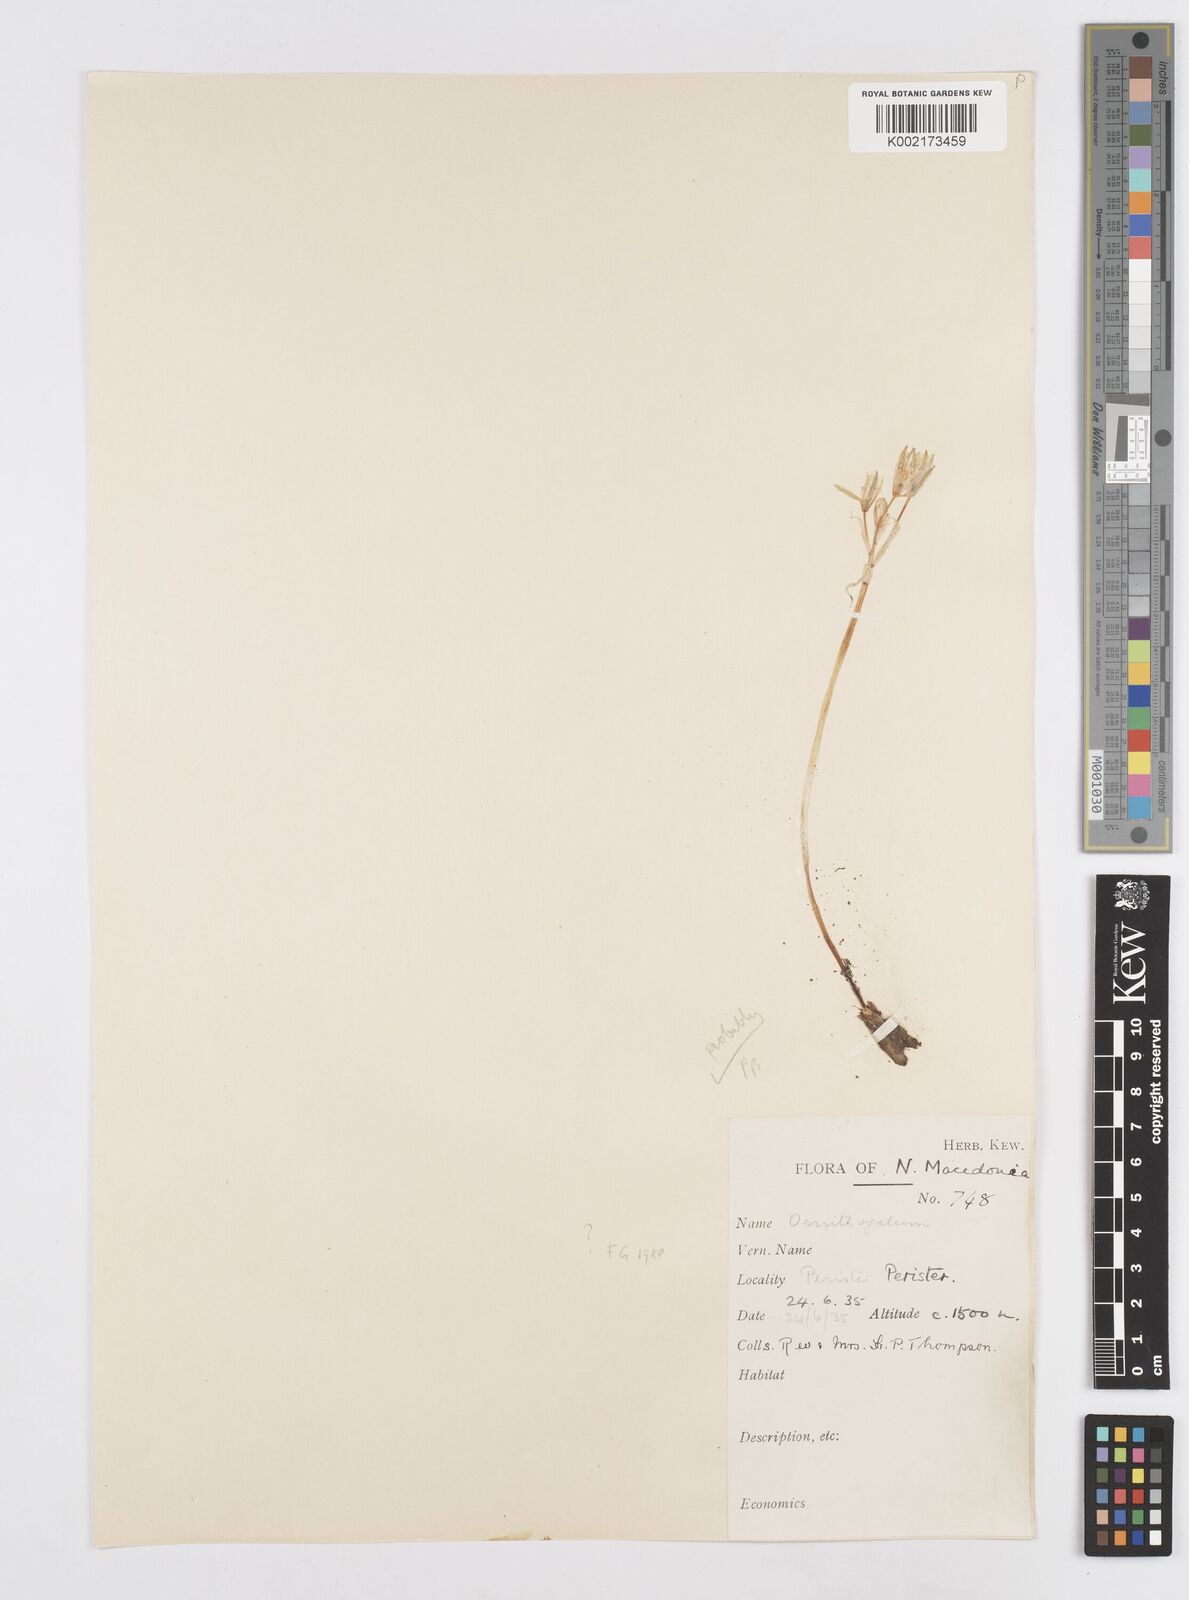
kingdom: Plantae
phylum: Tracheophyta
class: Liliopsida
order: Asparagales
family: Asparagaceae
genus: Ornithogalum
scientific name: Ornithogalum oligophyllum
